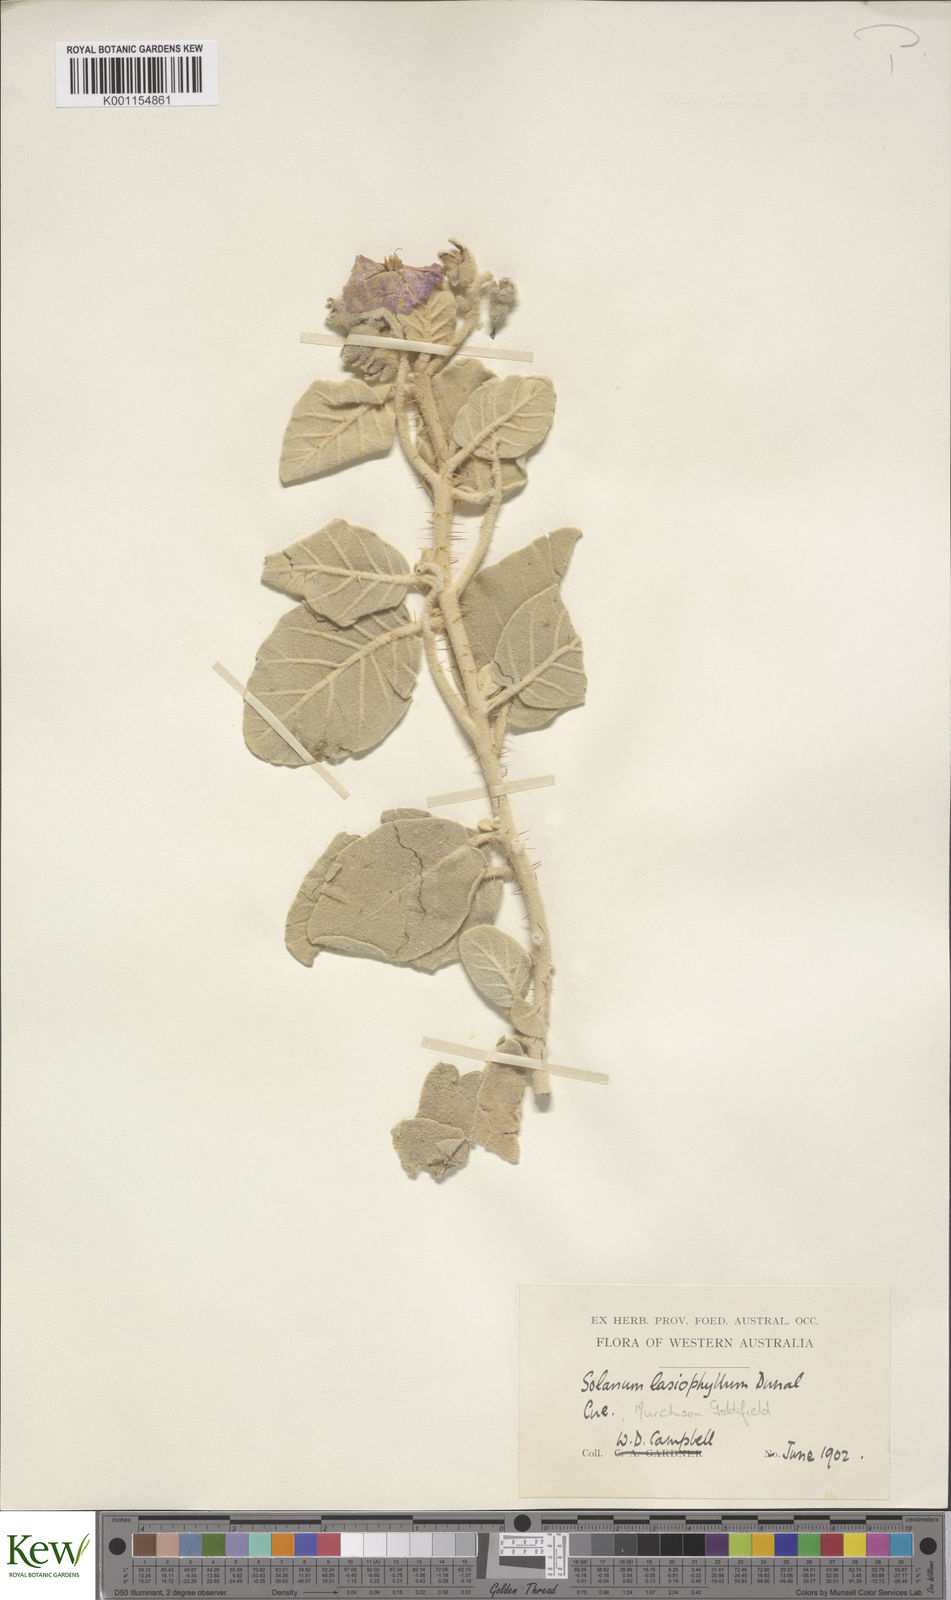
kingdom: Plantae
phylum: Tracheophyta
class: Magnoliopsida
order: Solanales
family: Solanaceae
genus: Solanum
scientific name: Solanum lasiophyllum
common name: Flannelbush
